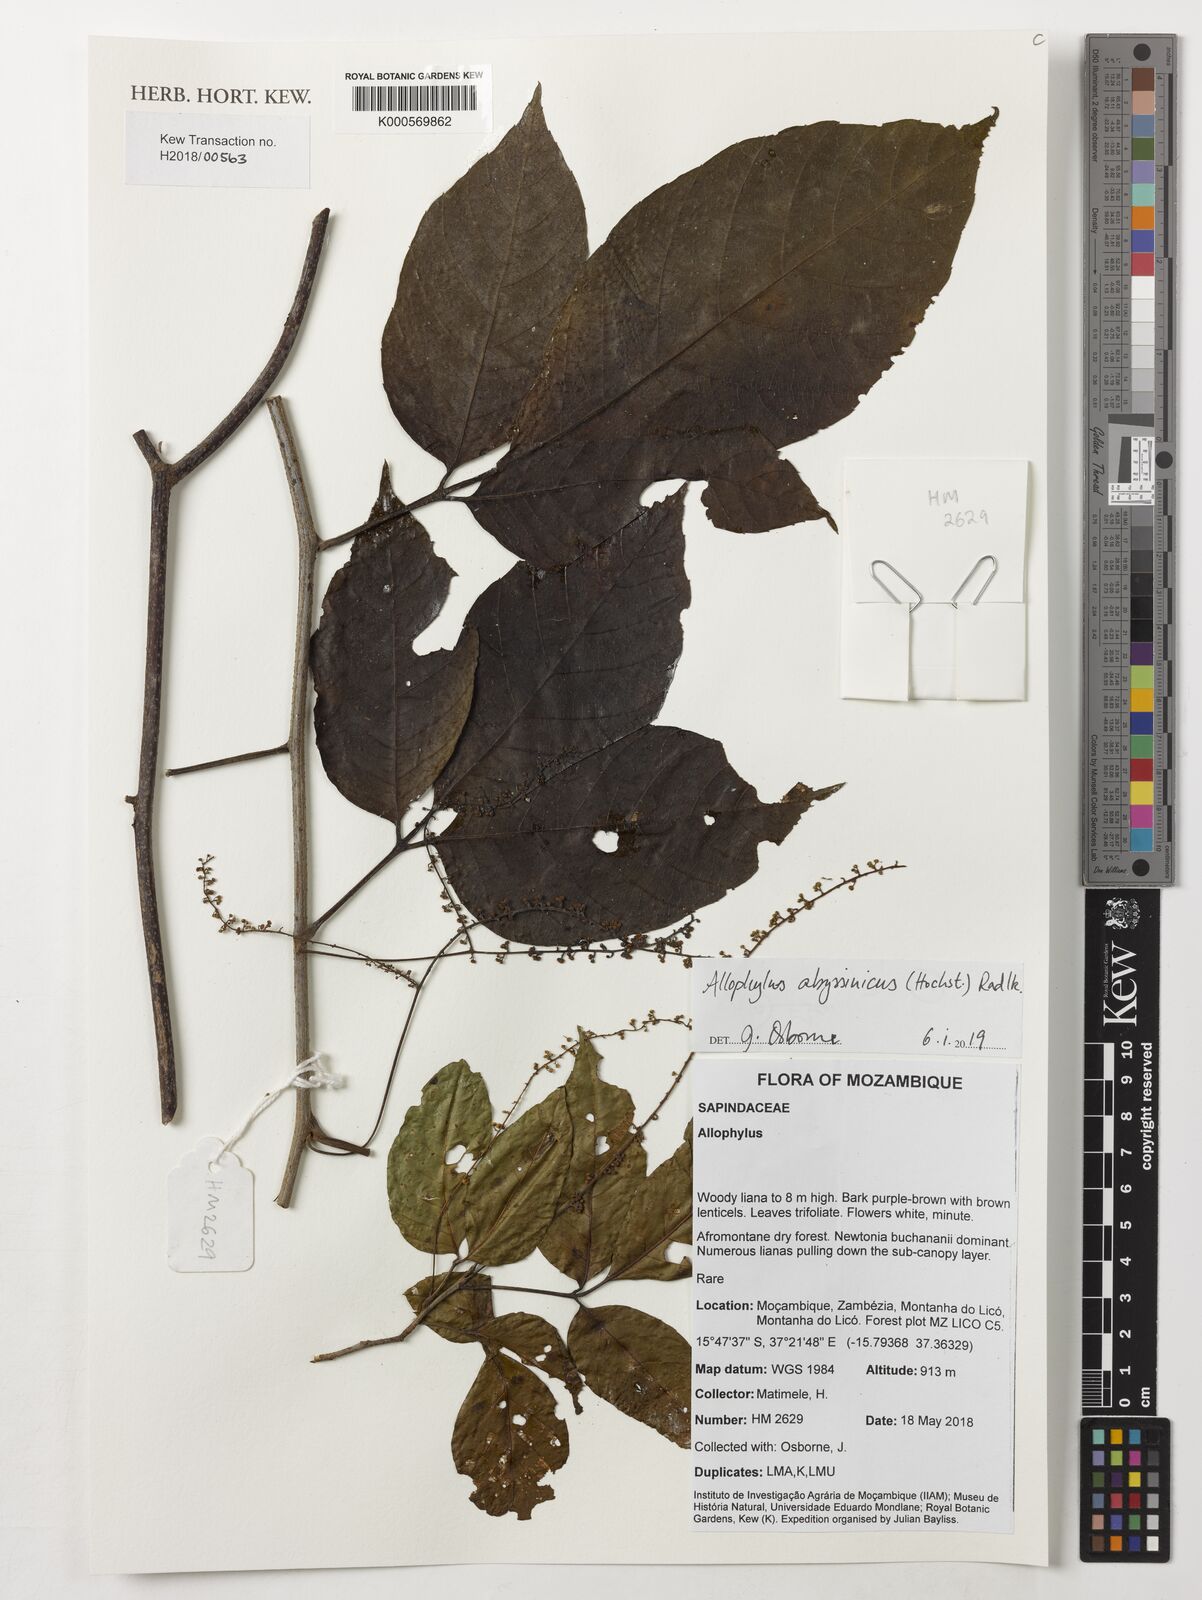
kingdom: Plantae
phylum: Tracheophyta
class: Magnoliopsida
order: Sapindales
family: Sapindaceae
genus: Allophylus
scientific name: Allophylus abyssinicus
